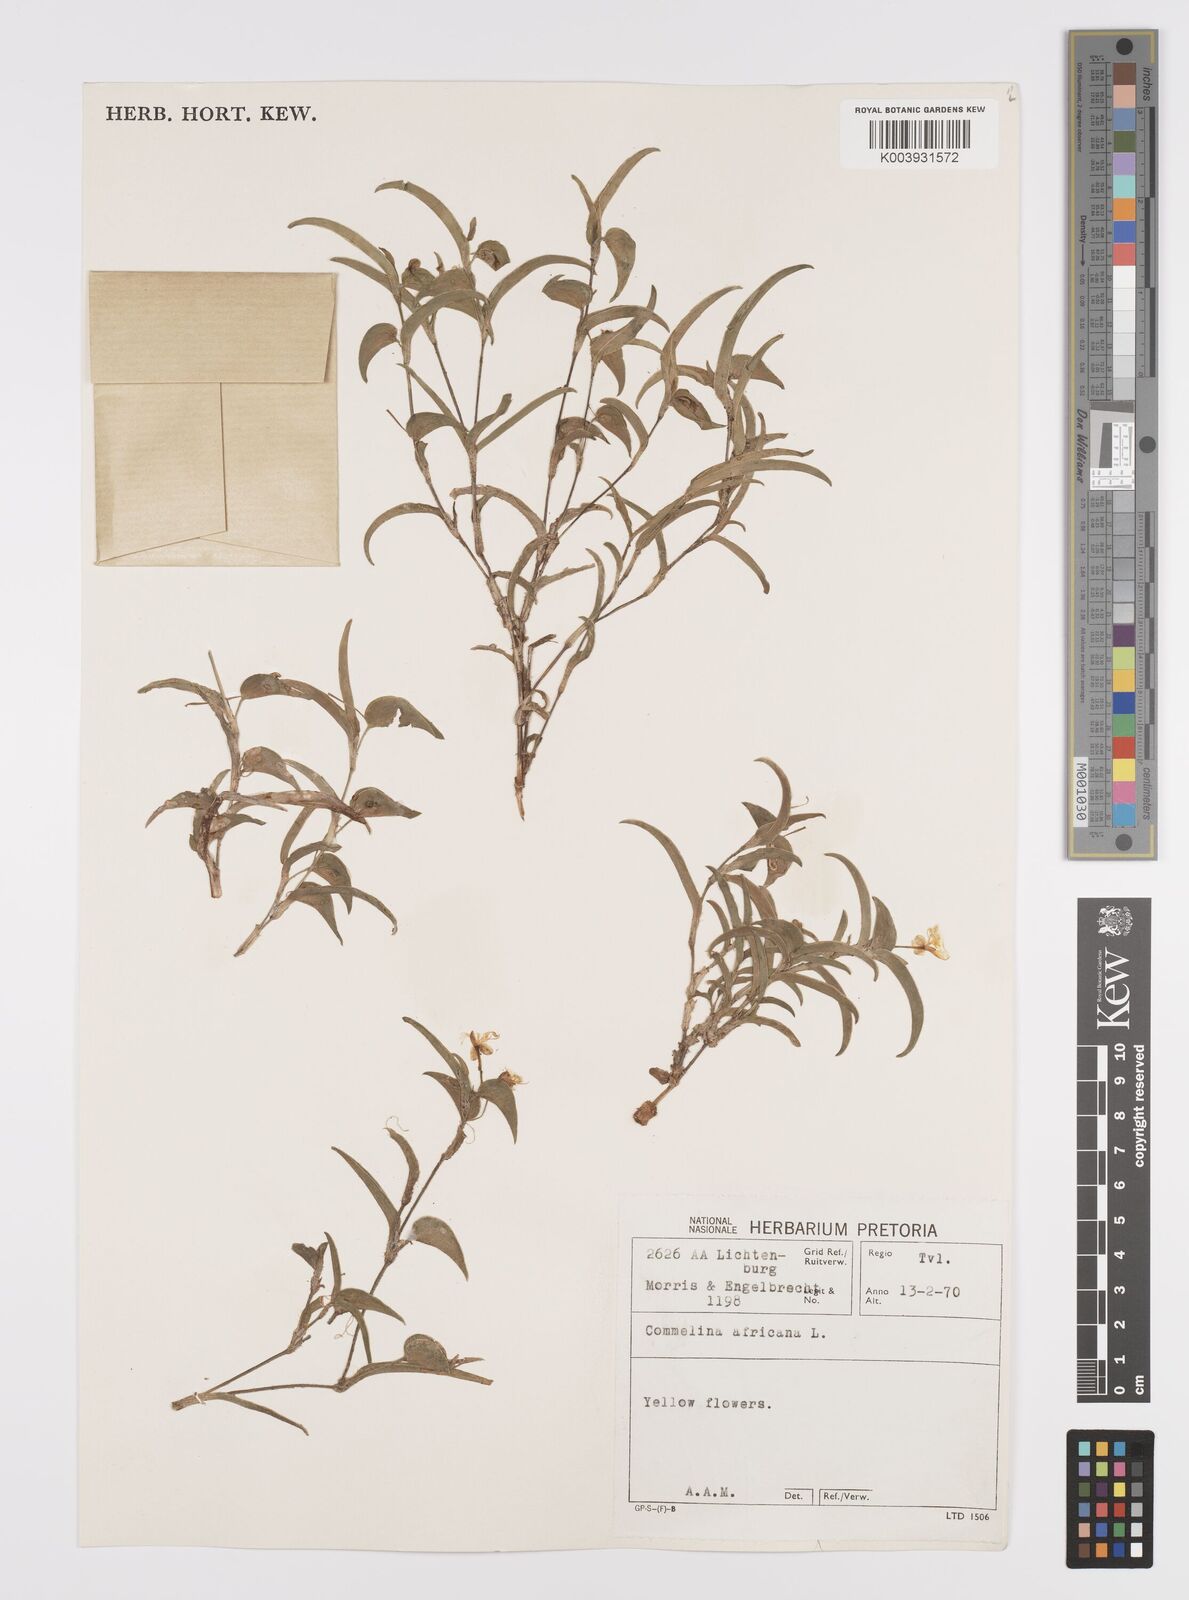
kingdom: Plantae
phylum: Tracheophyta
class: Liliopsida
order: Commelinales
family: Commelinaceae
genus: Commelina
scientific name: Commelina africana
